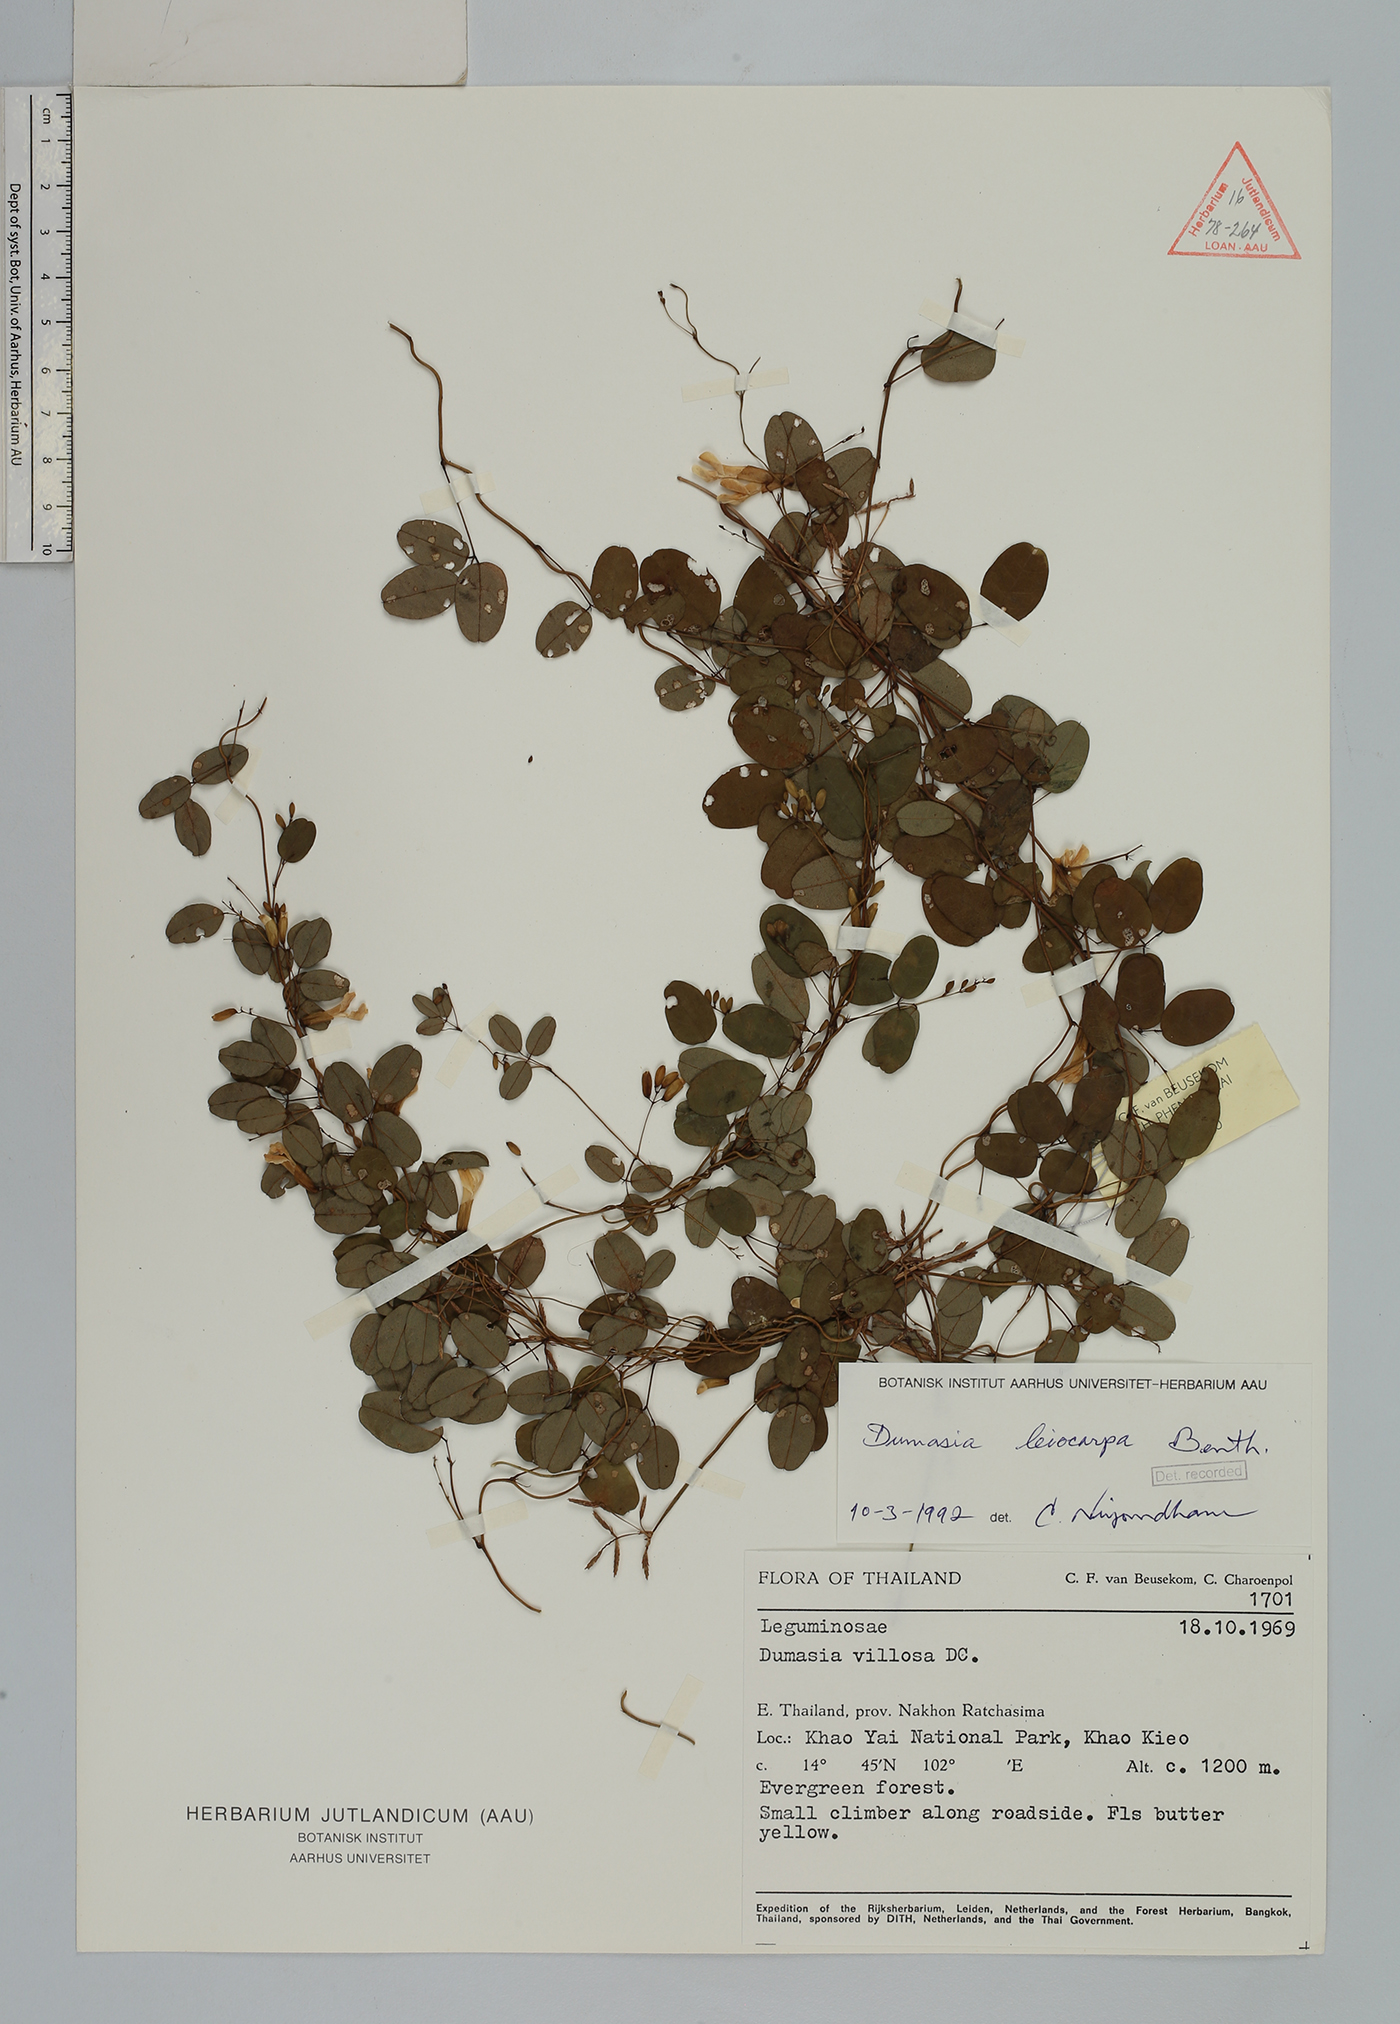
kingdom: Plantae
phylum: Tracheophyta
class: Magnoliopsida
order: Fabales
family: Fabaceae
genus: Dumasia
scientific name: Dumasia villosa
